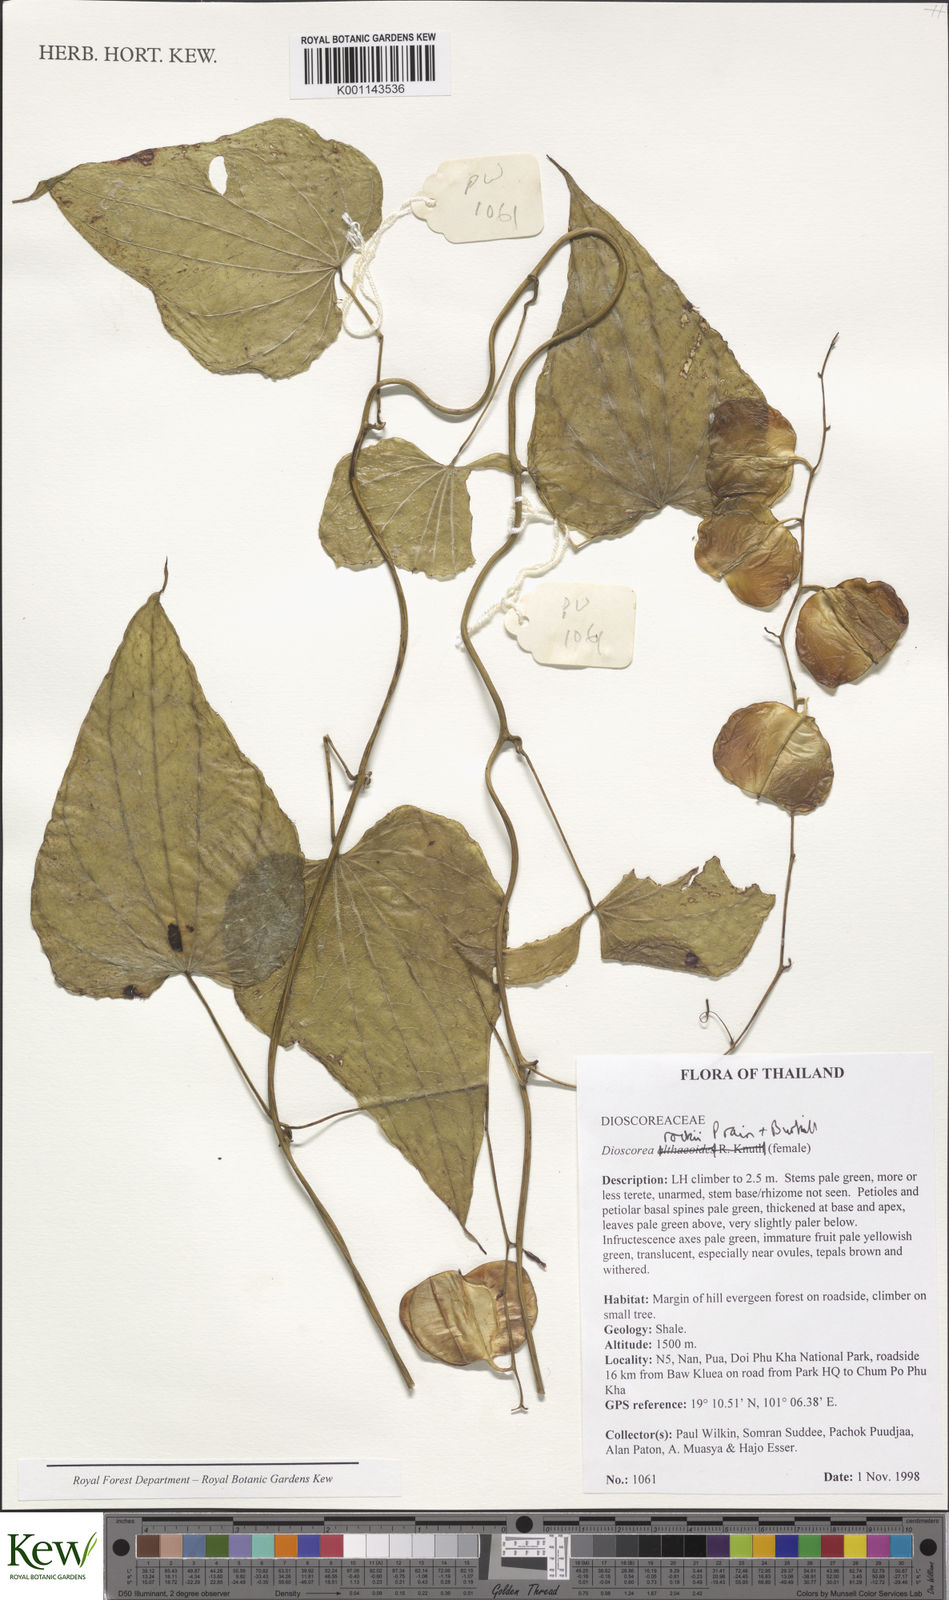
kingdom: Plantae
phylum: Tracheophyta
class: Liliopsida
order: Dioscoreales
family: Dioscoreaceae
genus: Dioscorea
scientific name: Dioscorea rockii
